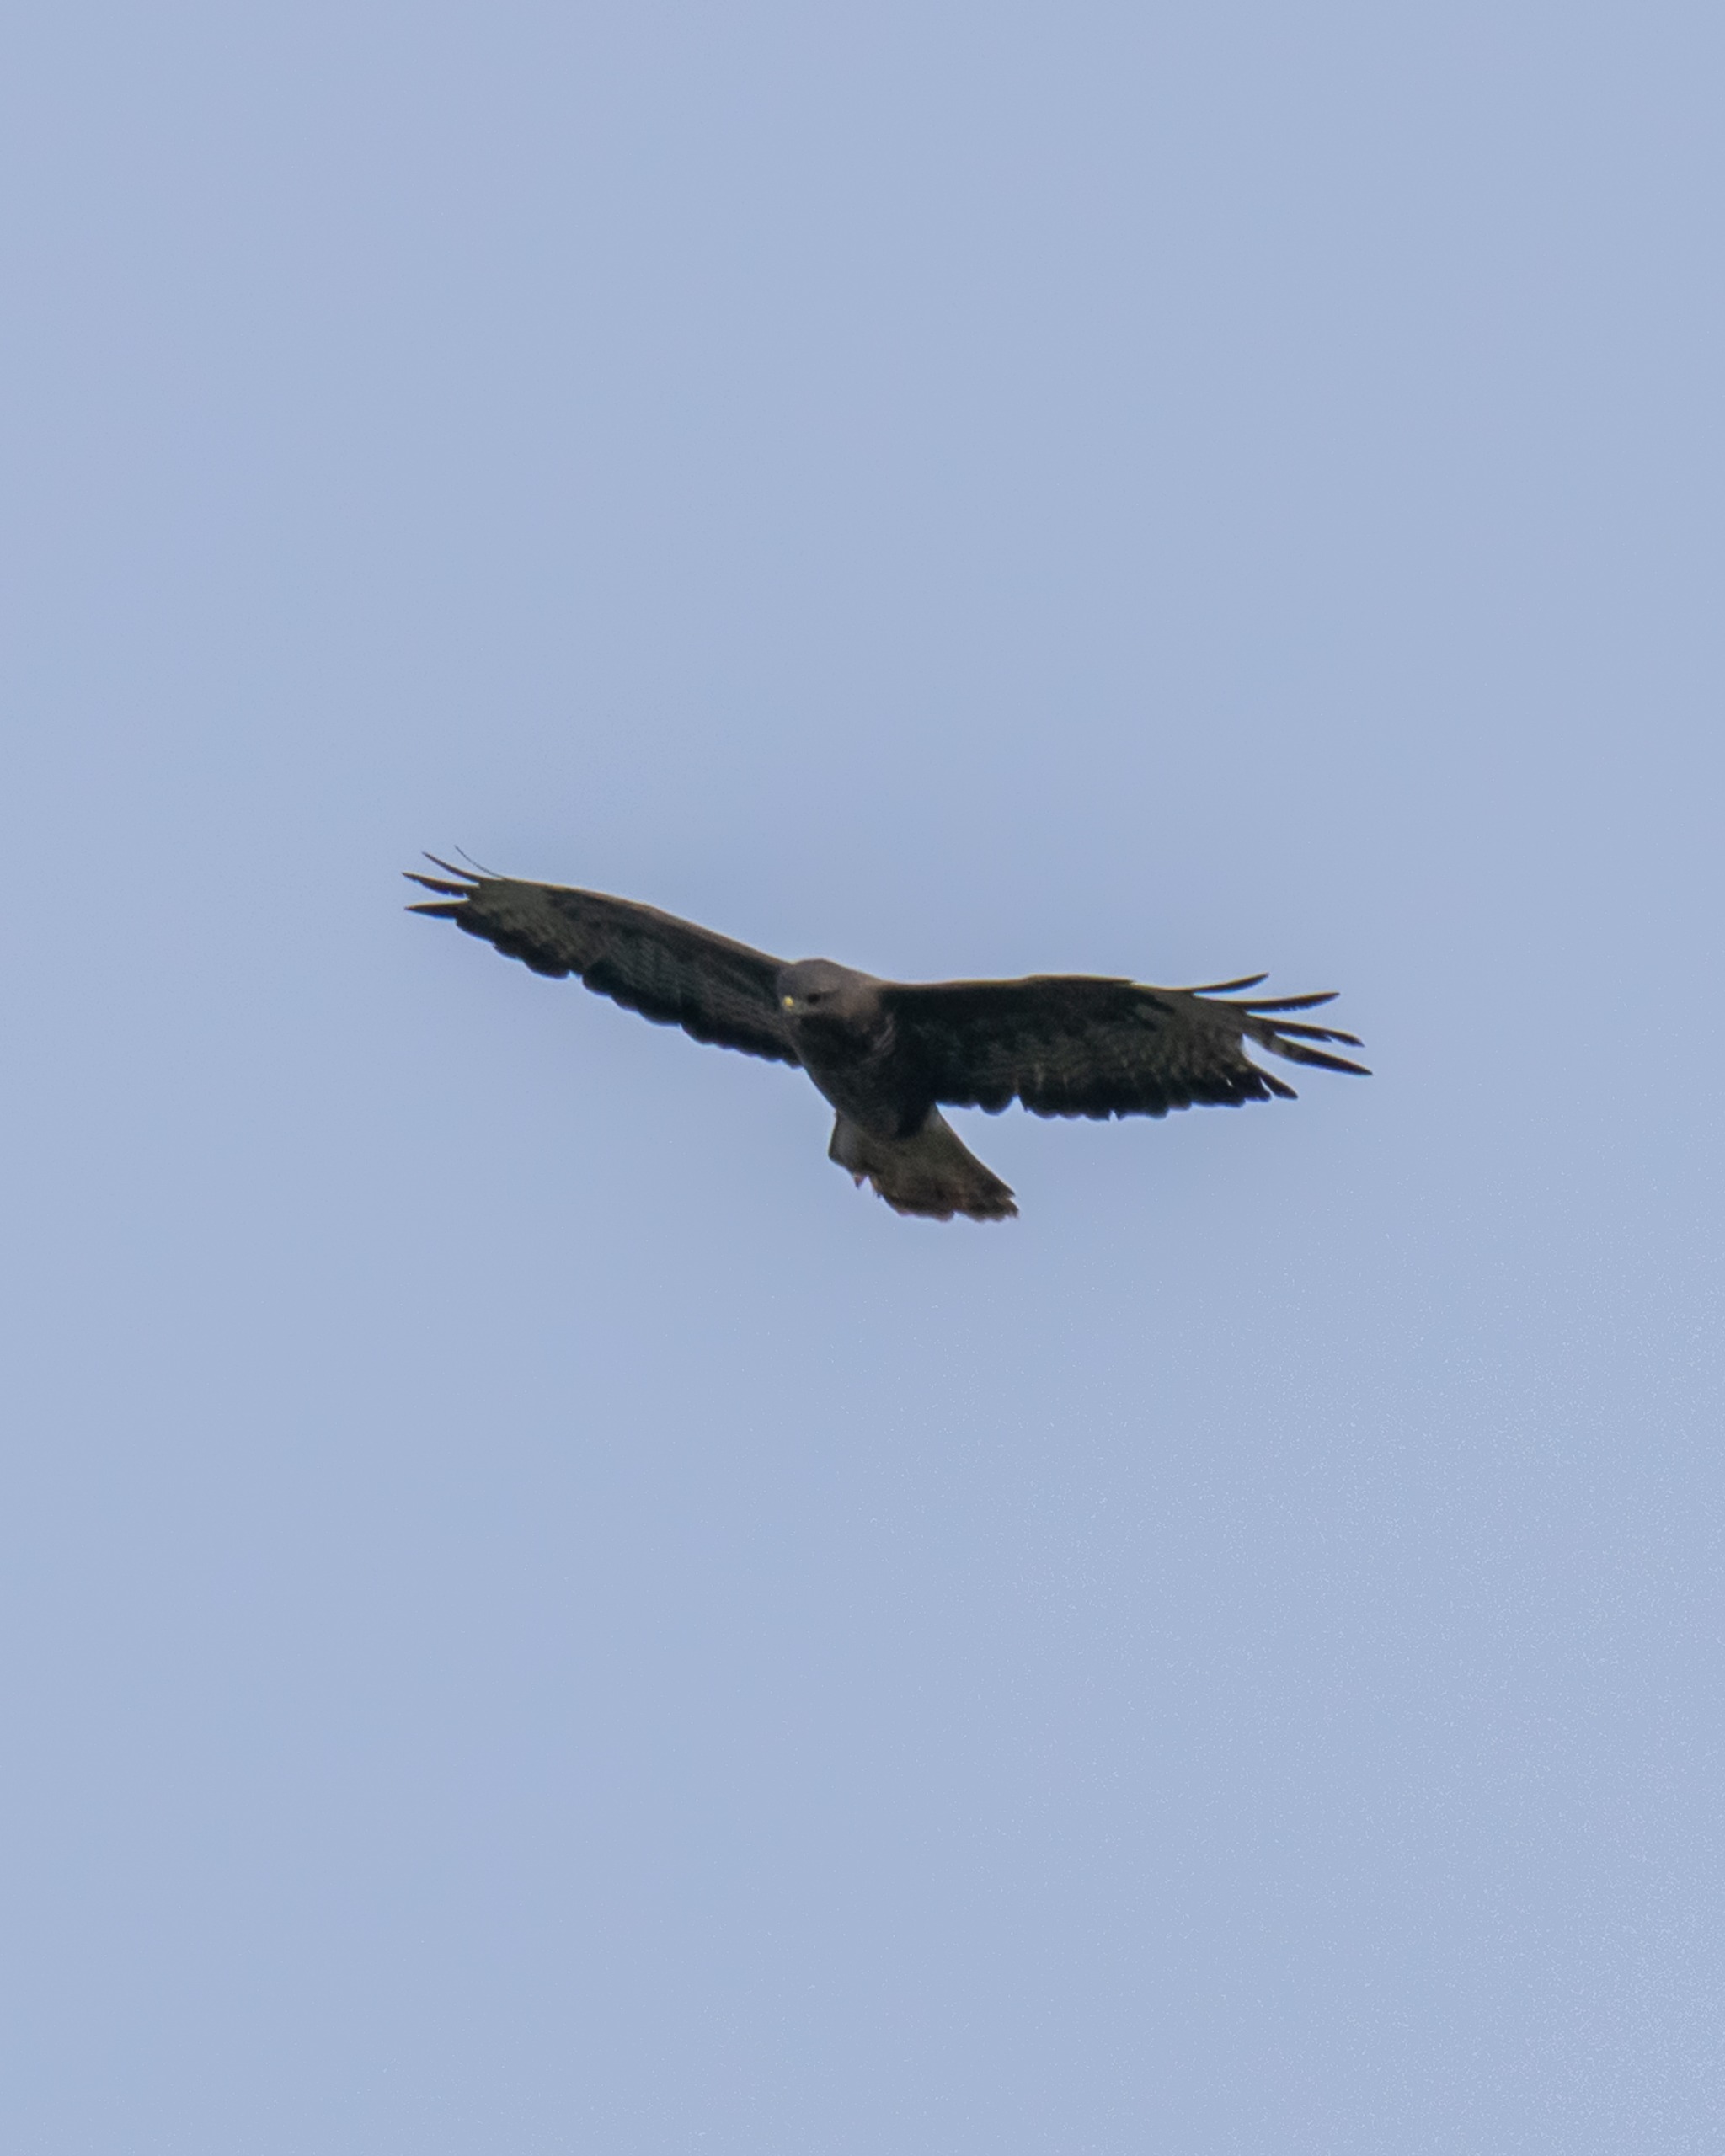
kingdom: Animalia
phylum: Chordata
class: Aves
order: Accipitriformes
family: Accipitridae
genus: Buteo
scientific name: Buteo buteo
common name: Musvåge
